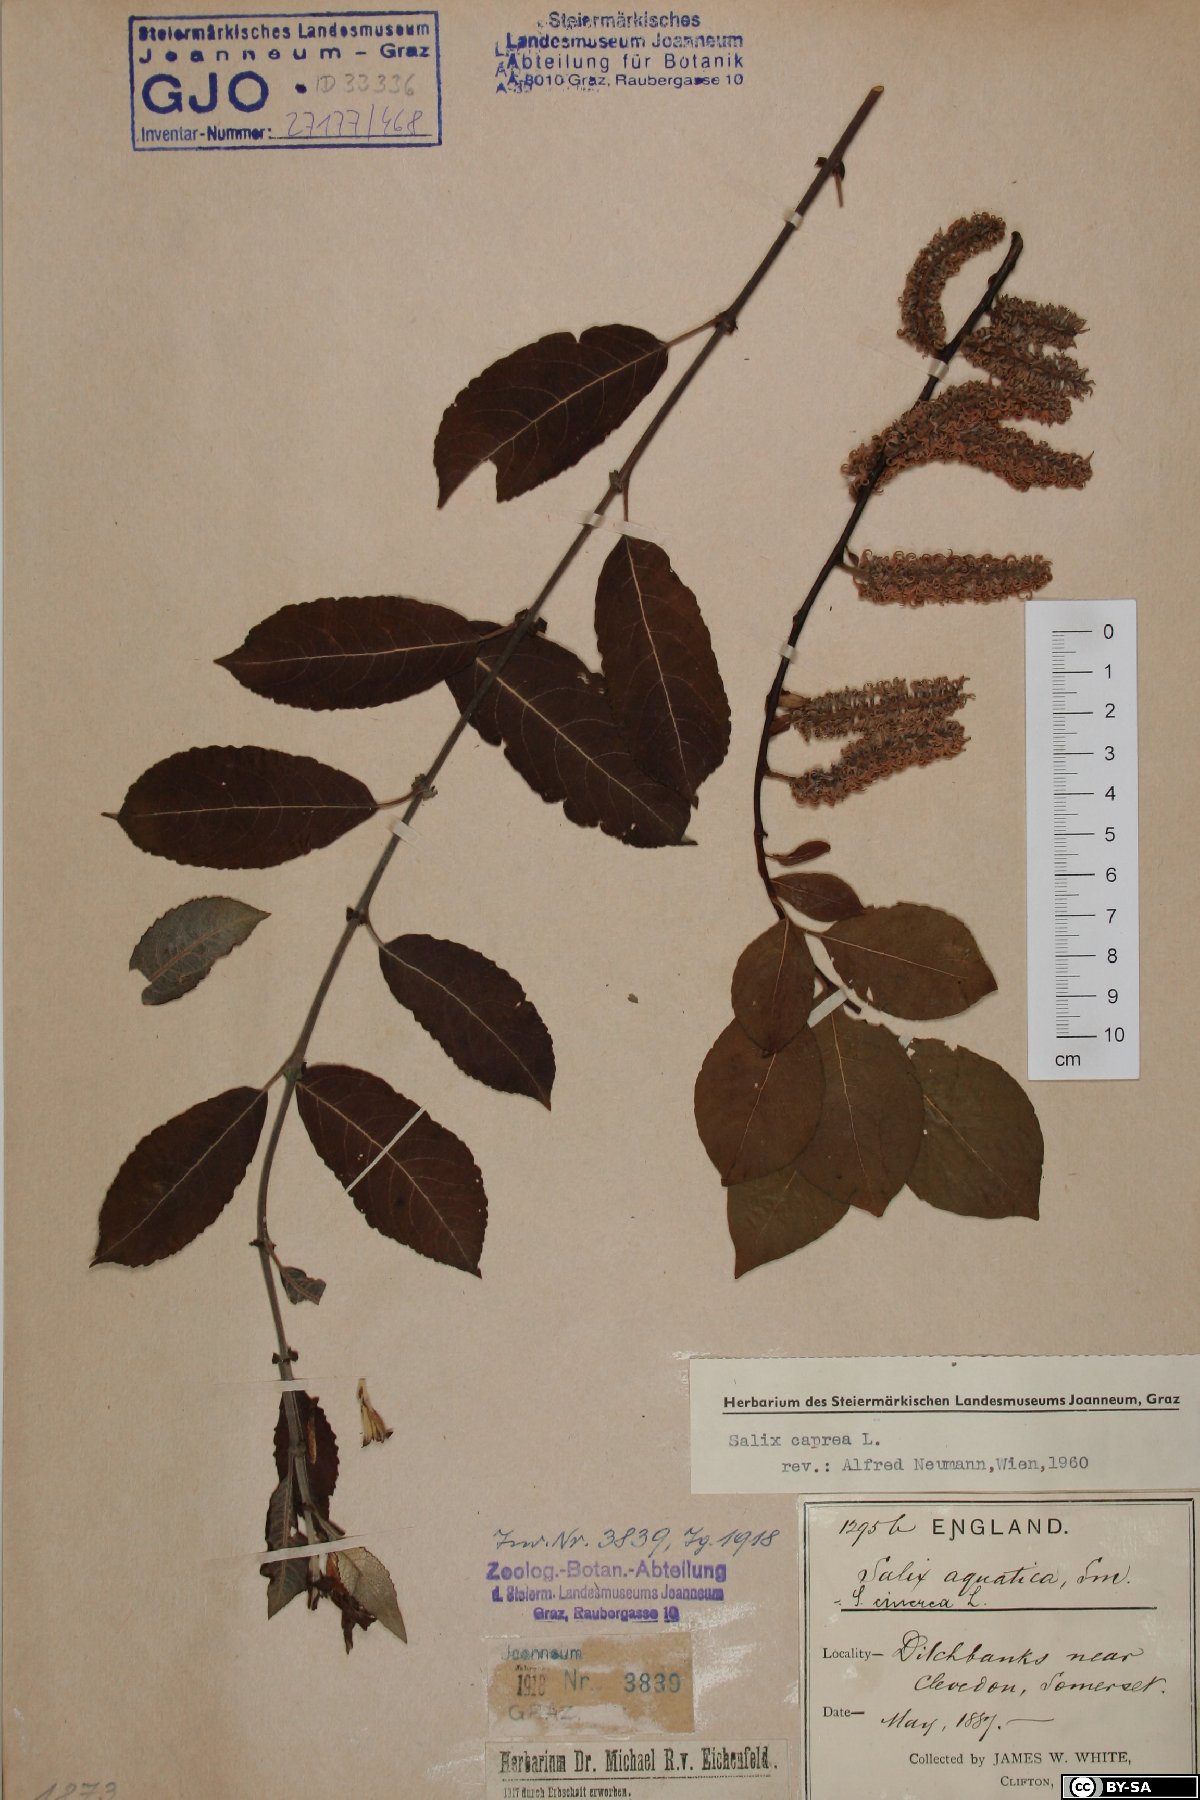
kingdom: Plantae
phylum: Tracheophyta
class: Magnoliopsida
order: Malpighiales
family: Salicaceae
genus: Salix
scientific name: Salix caprea
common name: Goat willow
